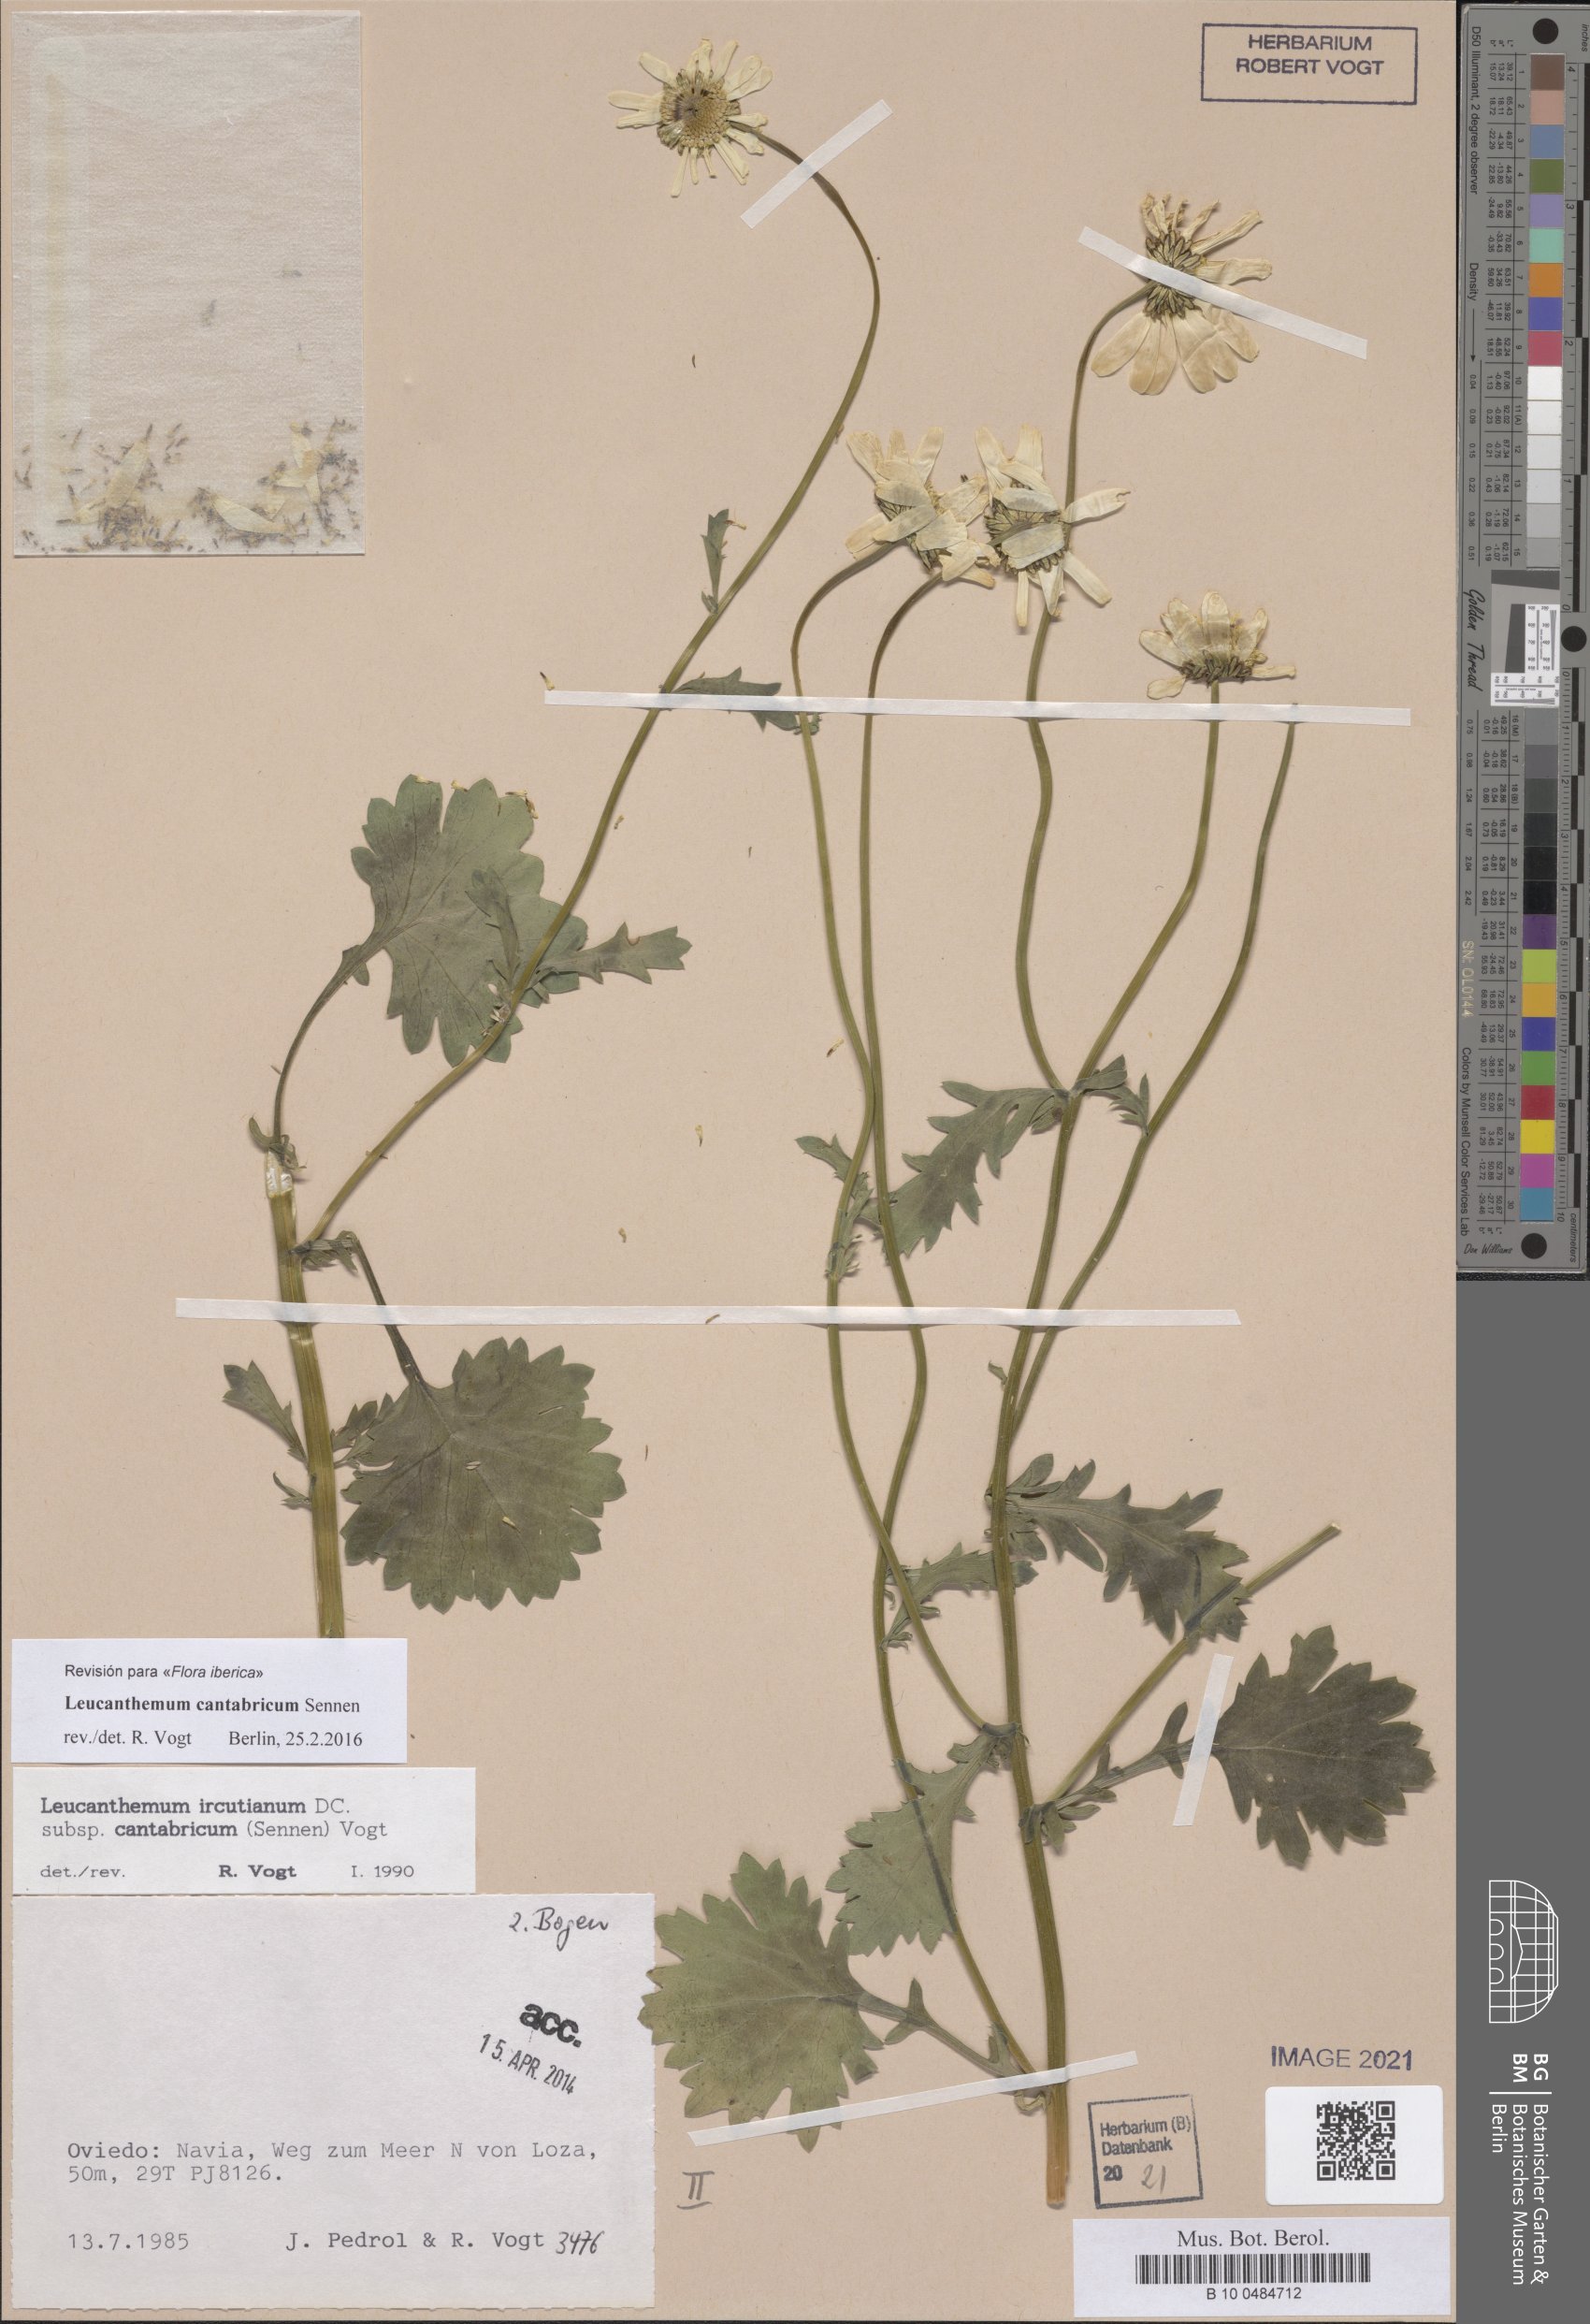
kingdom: Plantae
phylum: Tracheophyta
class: Magnoliopsida
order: Asterales
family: Asteraceae
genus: Leucanthemum
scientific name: Leucanthemum cantabricum
